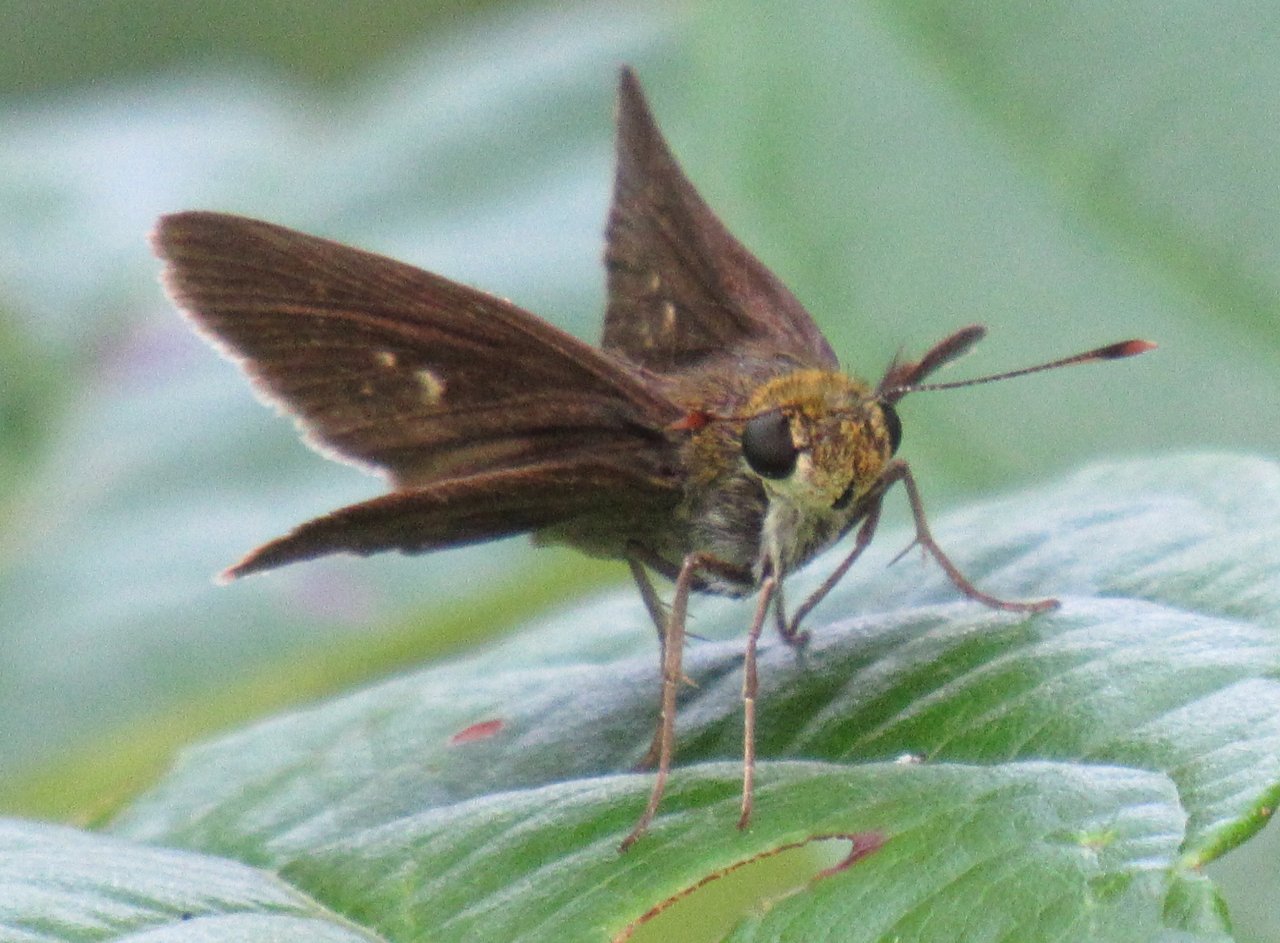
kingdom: Animalia
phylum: Arthropoda
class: Insecta
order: Lepidoptera
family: Hesperiidae
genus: Euphyes
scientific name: Euphyes vestris
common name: Dun Skipper
